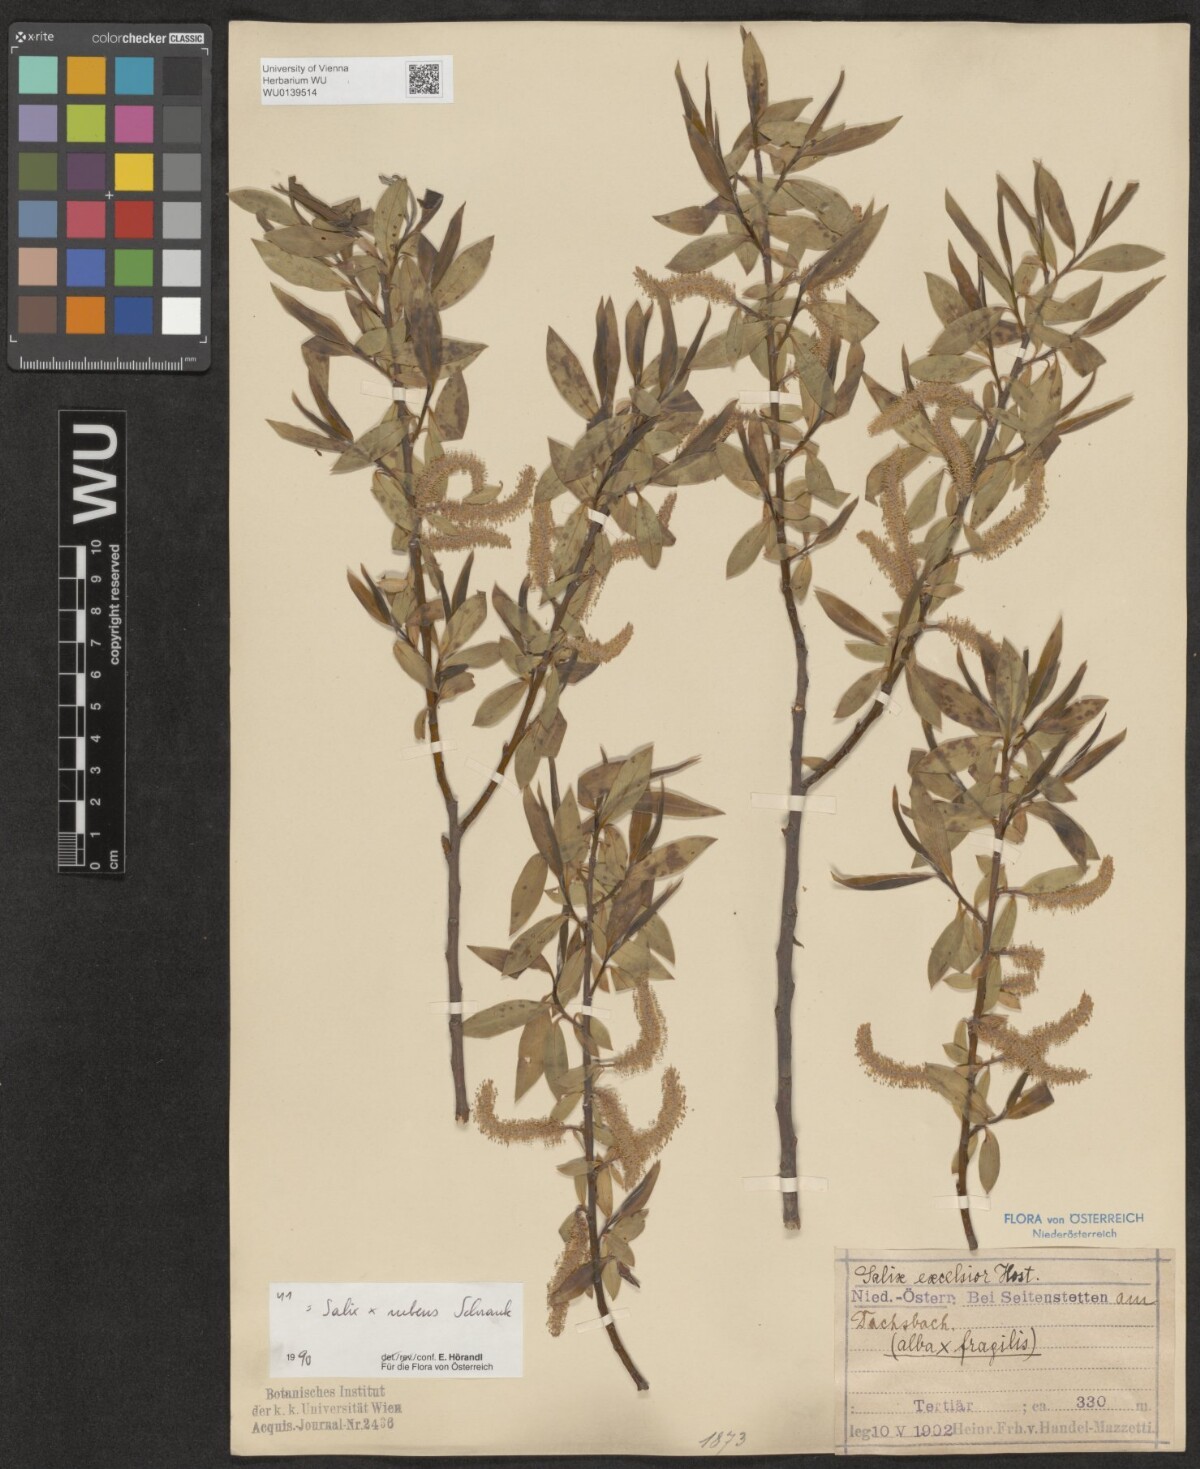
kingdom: Plantae
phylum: Tracheophyta
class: Magnoliopsida
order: Malpighiales
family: Salicaceae
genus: Salix
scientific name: Salix rubens
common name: Hybrid crack willow
